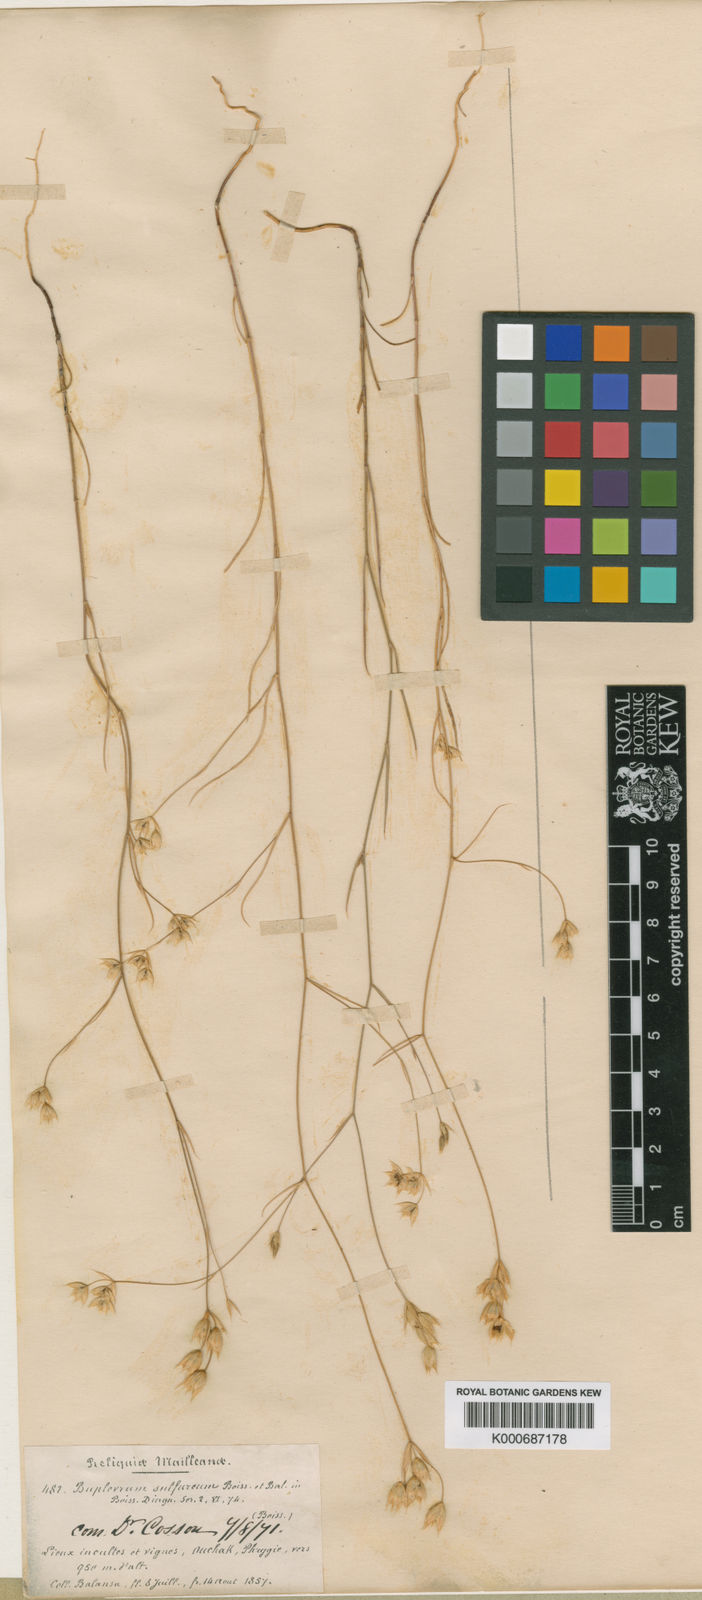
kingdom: Plantae
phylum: Tracheophyta
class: Magnoliopsida
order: Apiales
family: Apiaceae
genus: Bupleurum
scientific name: Bupleurum sulphureum
